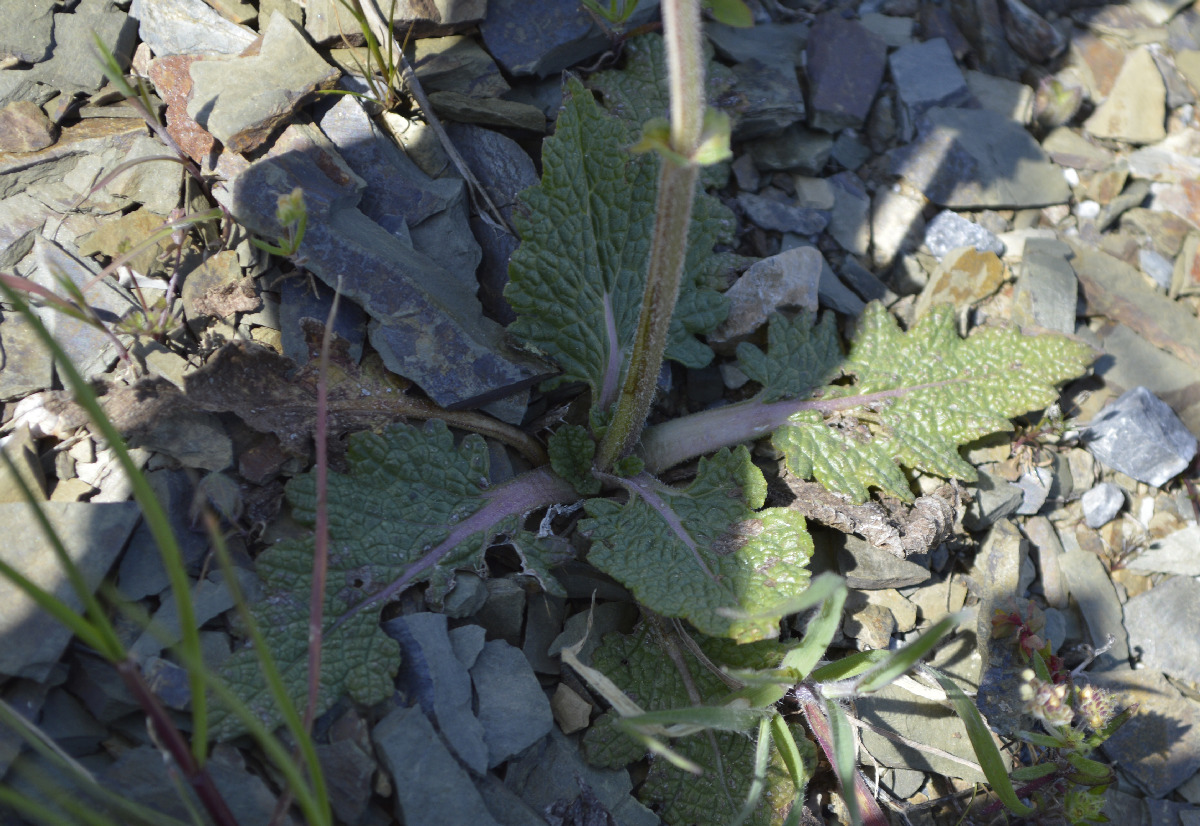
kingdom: Plantae
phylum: Tracheophyta
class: Magnoliopsida
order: Lamiales
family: Lamiaceae
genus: Salvia
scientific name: Salvia verbenaca
